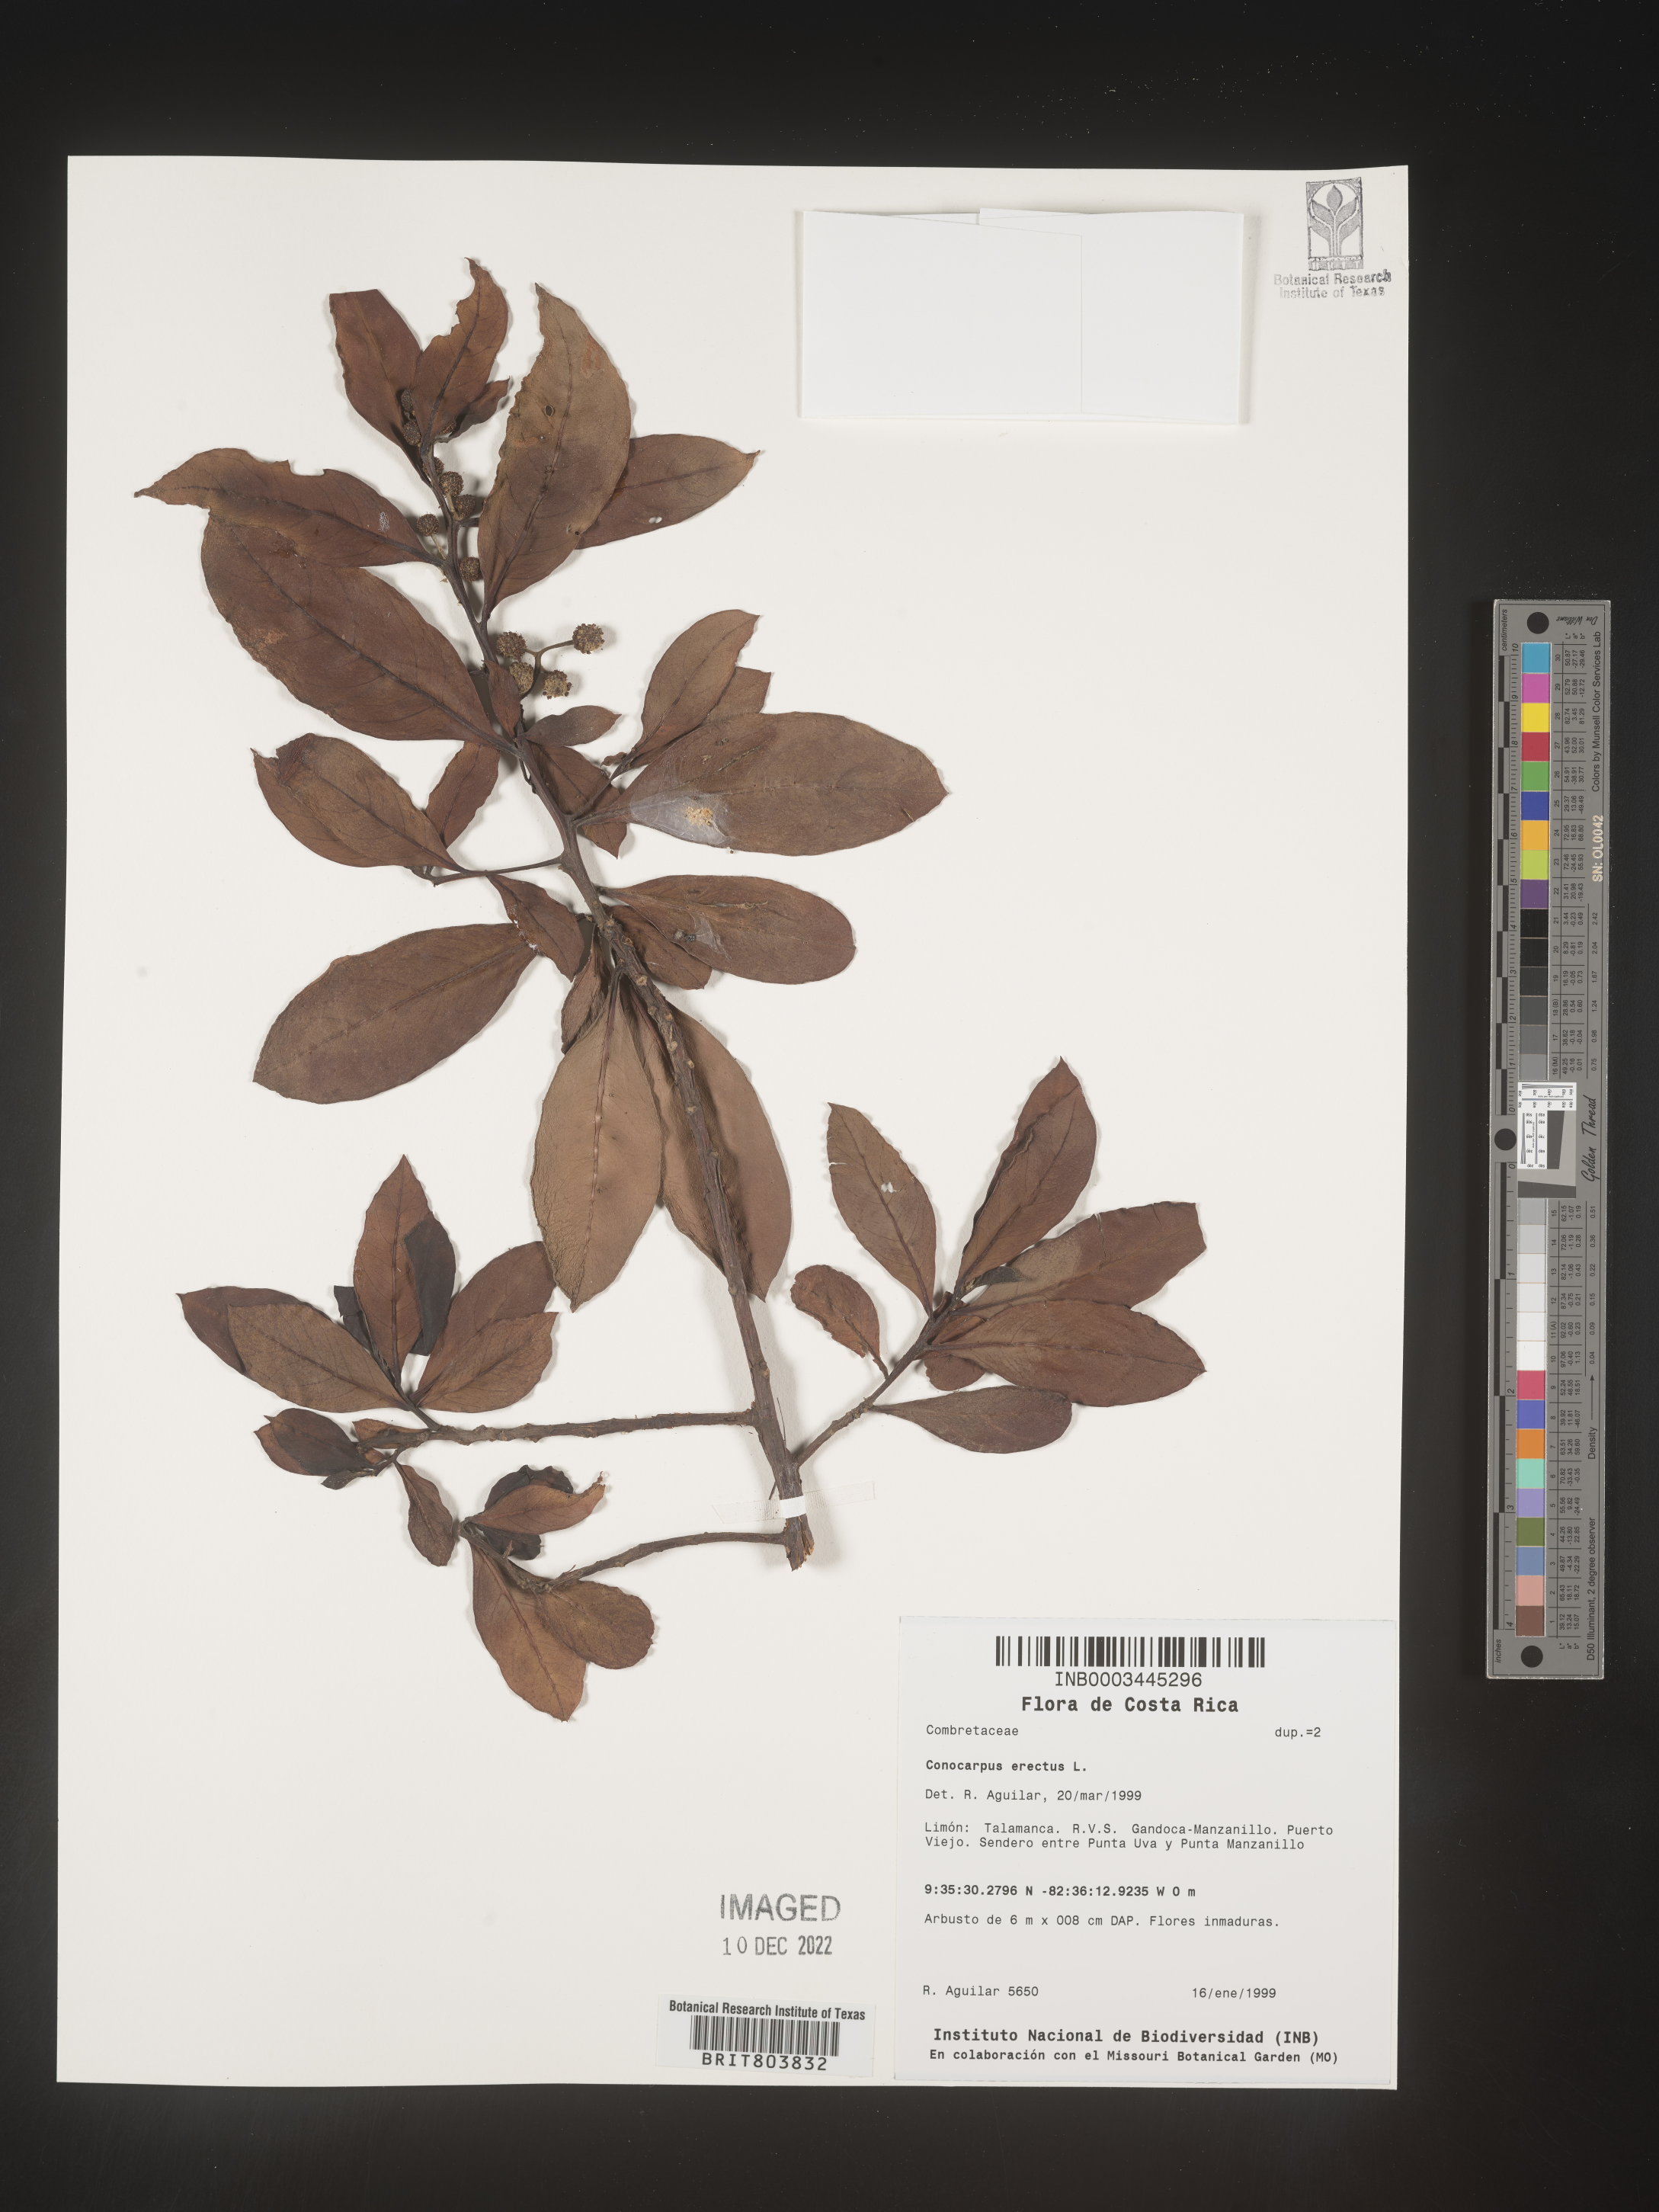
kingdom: Plantae
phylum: Tracheophyta
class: Magnoliopsida
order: Myrtales
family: Combretaceae
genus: Conocarpus
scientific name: Conocarpus
